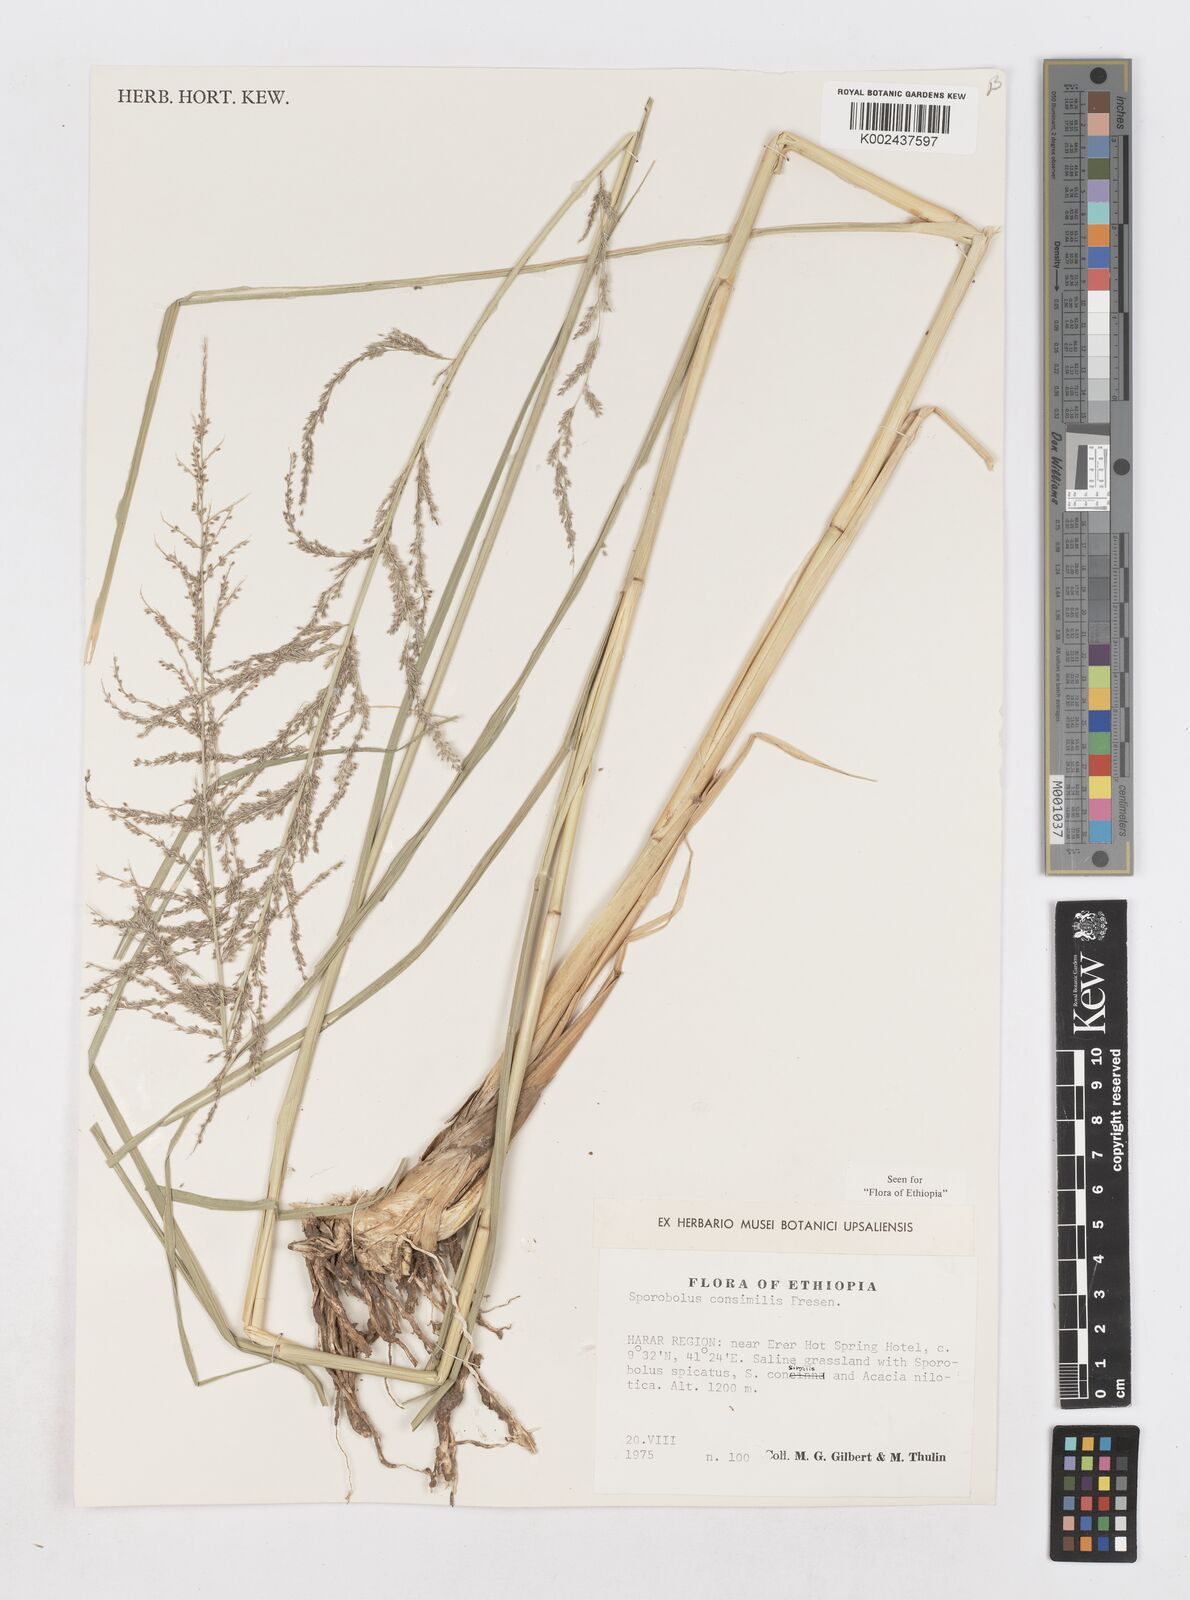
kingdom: Plantae
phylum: Tracheophyta
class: Liliopsida
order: Poales
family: Poaceae
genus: Sporobolus
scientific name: Sporobolus consimilis
